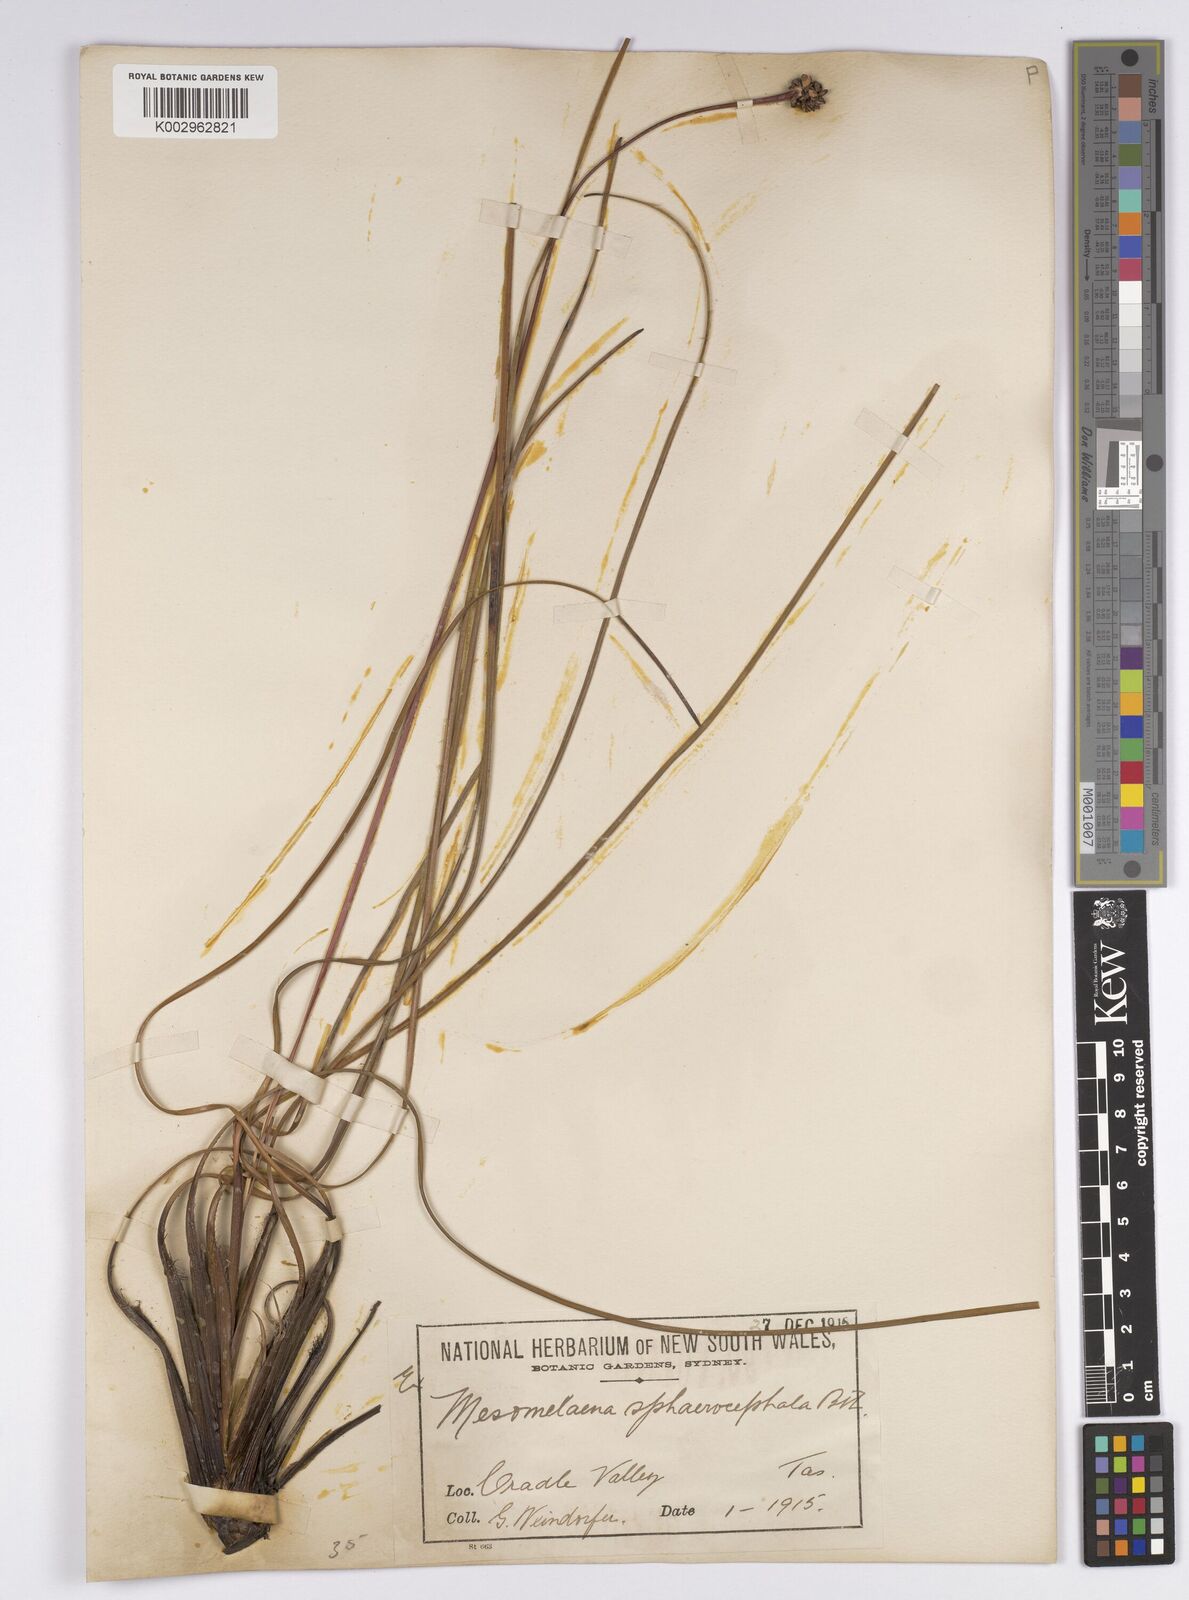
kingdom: Plantae
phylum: Tracheophyta
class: Liliopsida
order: Poales
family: Cyperaceae
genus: Gymnoschoenus
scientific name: Gymnoschoenus sphaerocephalus
